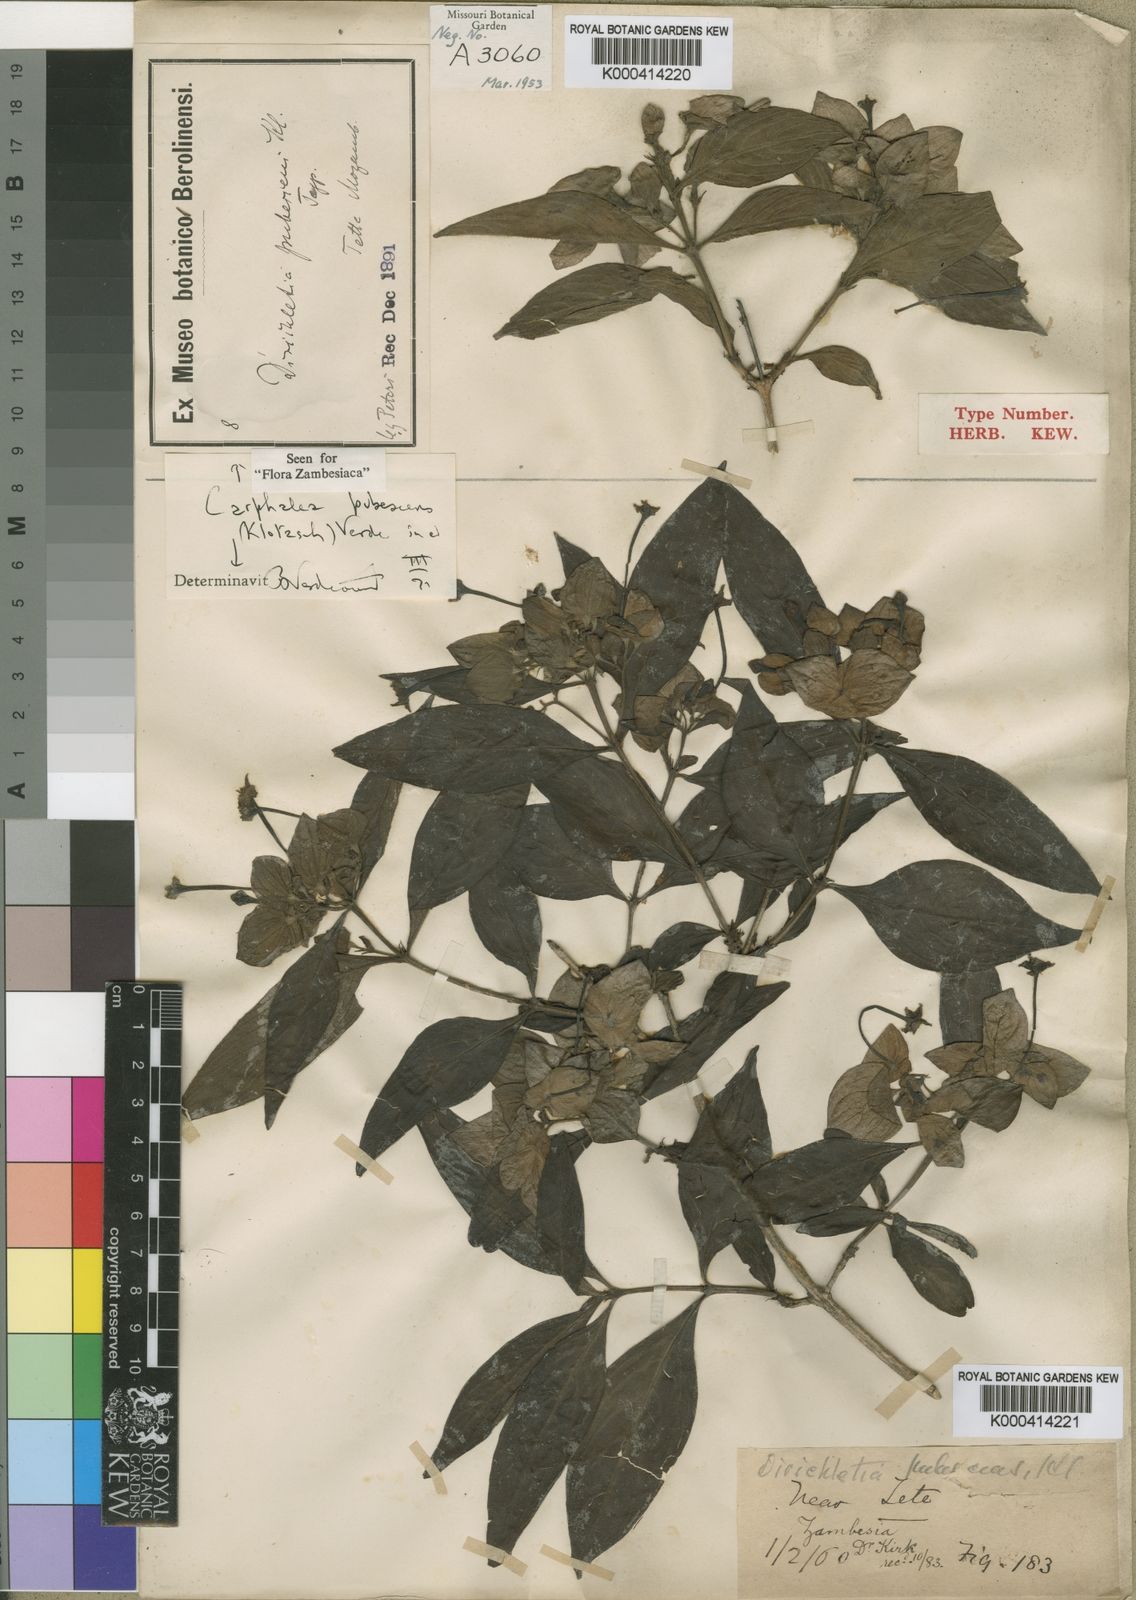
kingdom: Plantae
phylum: Tracheophyta
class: Magnoliopsida
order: Gentianales
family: Rubiaceae
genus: Dirichletia
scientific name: Dirichletia pubescens
